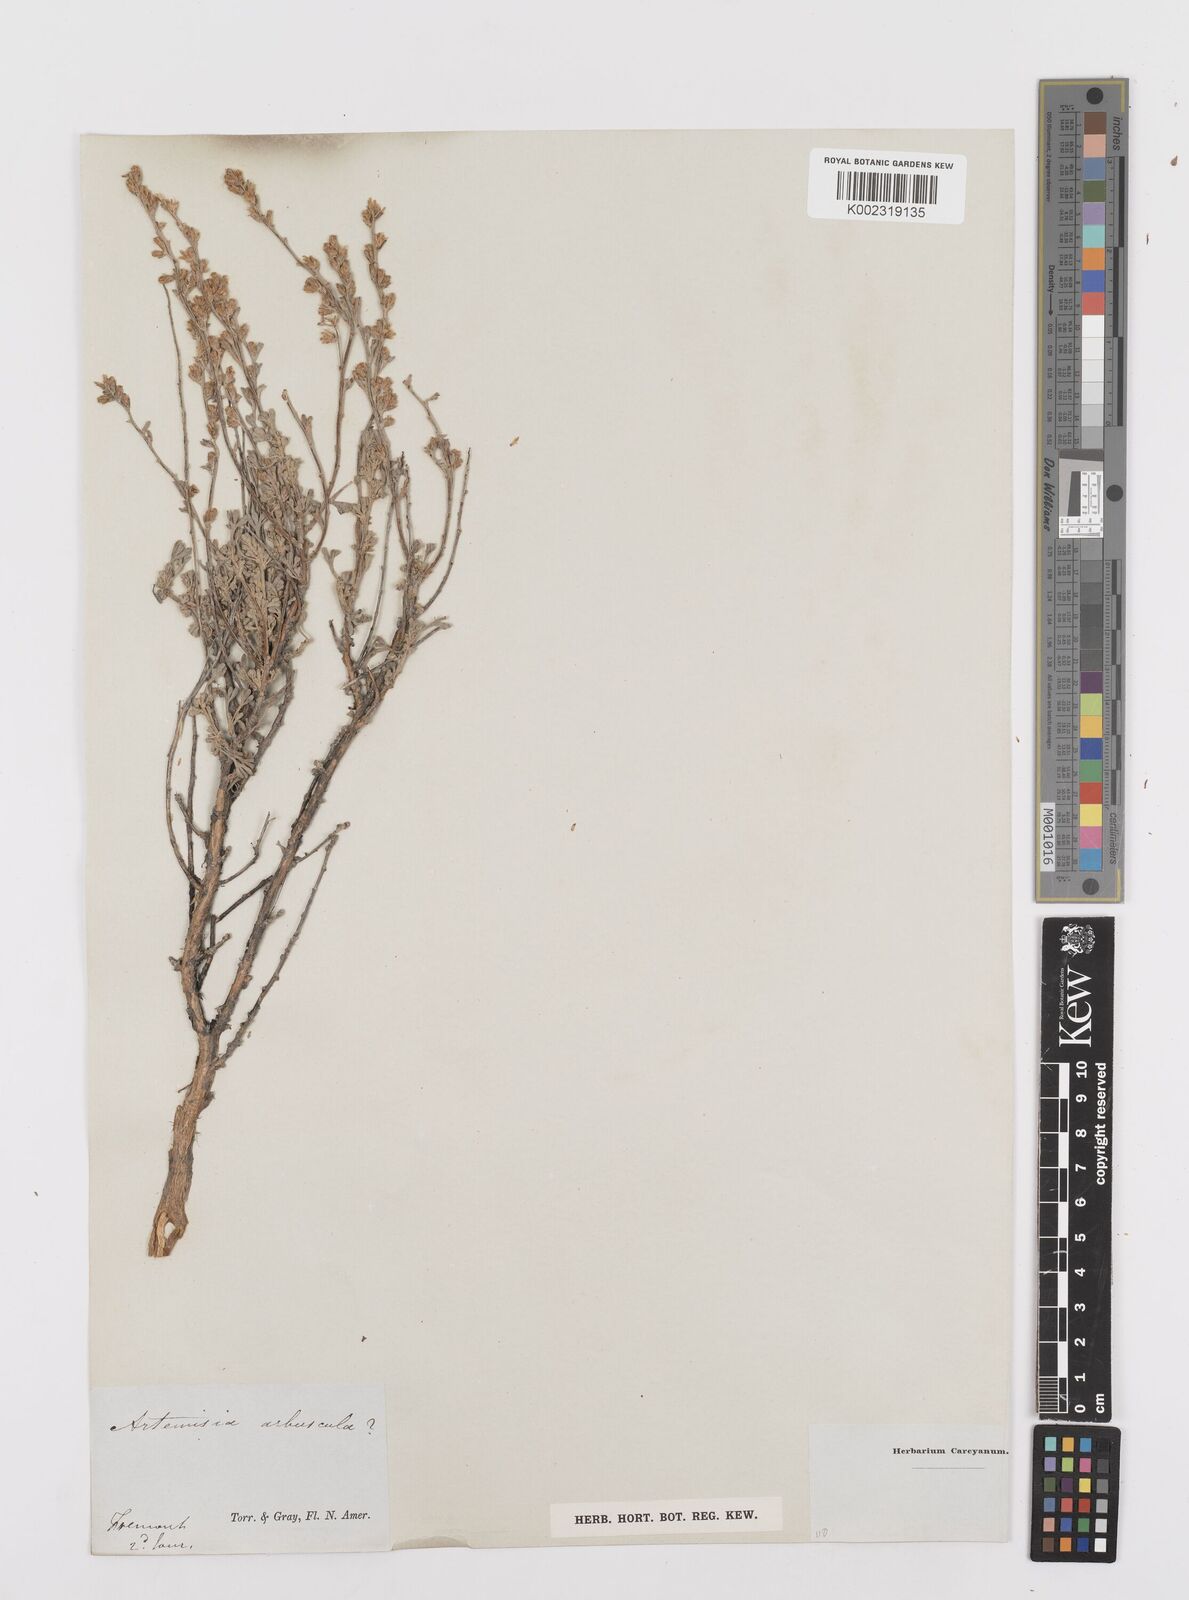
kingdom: Plantae
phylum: Tracheophyta
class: Magnoliopsida
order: Asterales
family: Asteraceae
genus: Artemisia
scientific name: Artemisia arbuscula
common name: Sagebrush
